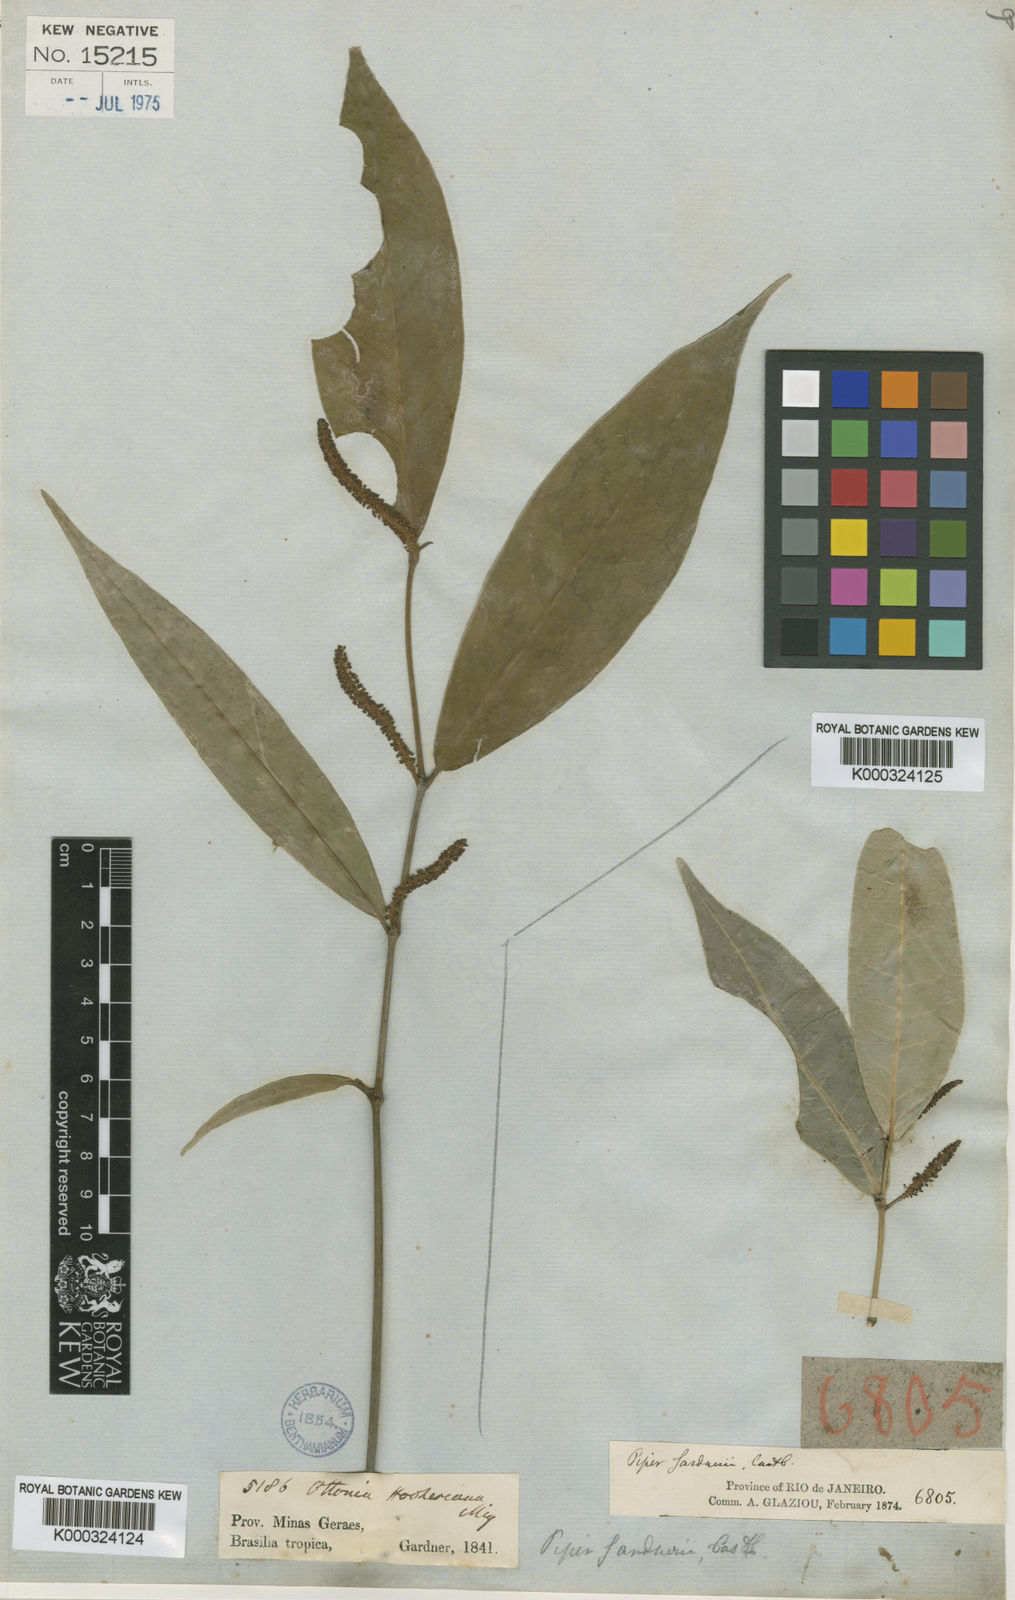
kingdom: Plantae
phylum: Tracheophyta
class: Magnoliopsida
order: Piperales
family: Piperaceae
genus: Piper
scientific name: Piper hookerianum
